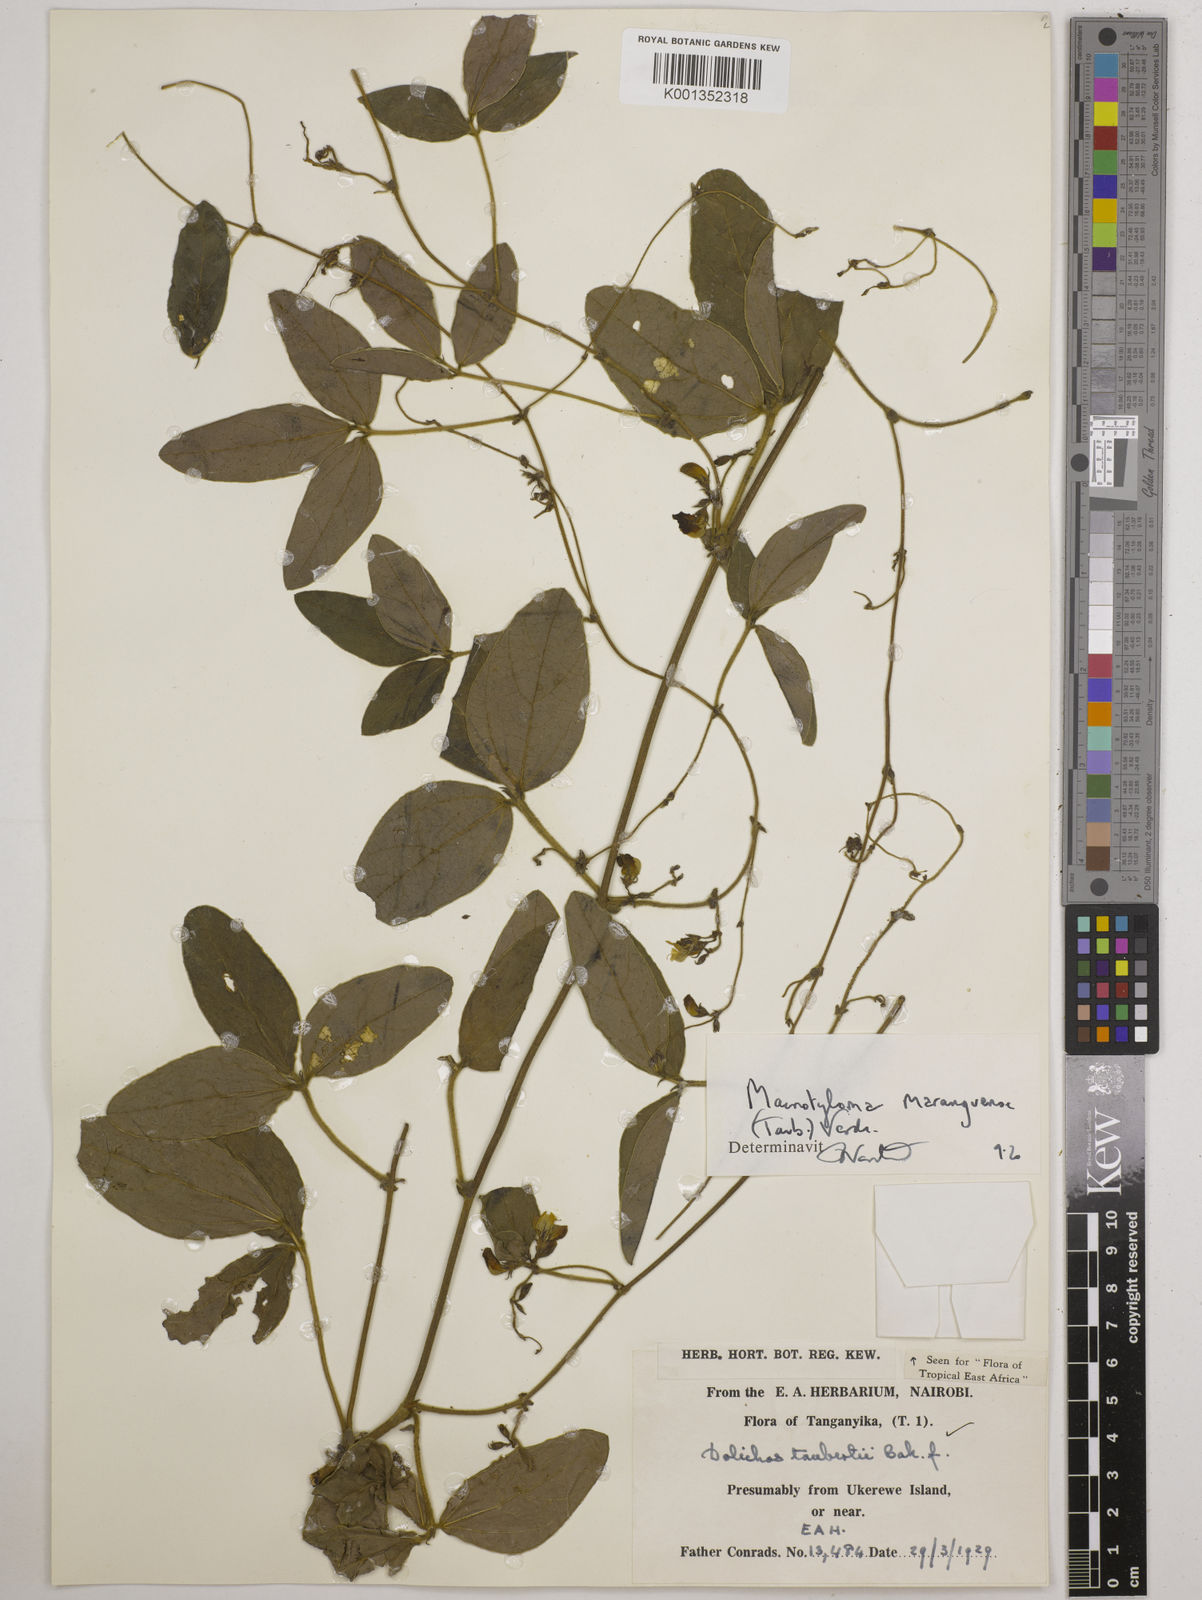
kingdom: Plantae
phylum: Tracheophyta
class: Magnoliopsida
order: Fabales
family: Fabaceae
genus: Macrotyloma
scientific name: Macrotyloma maranguense
